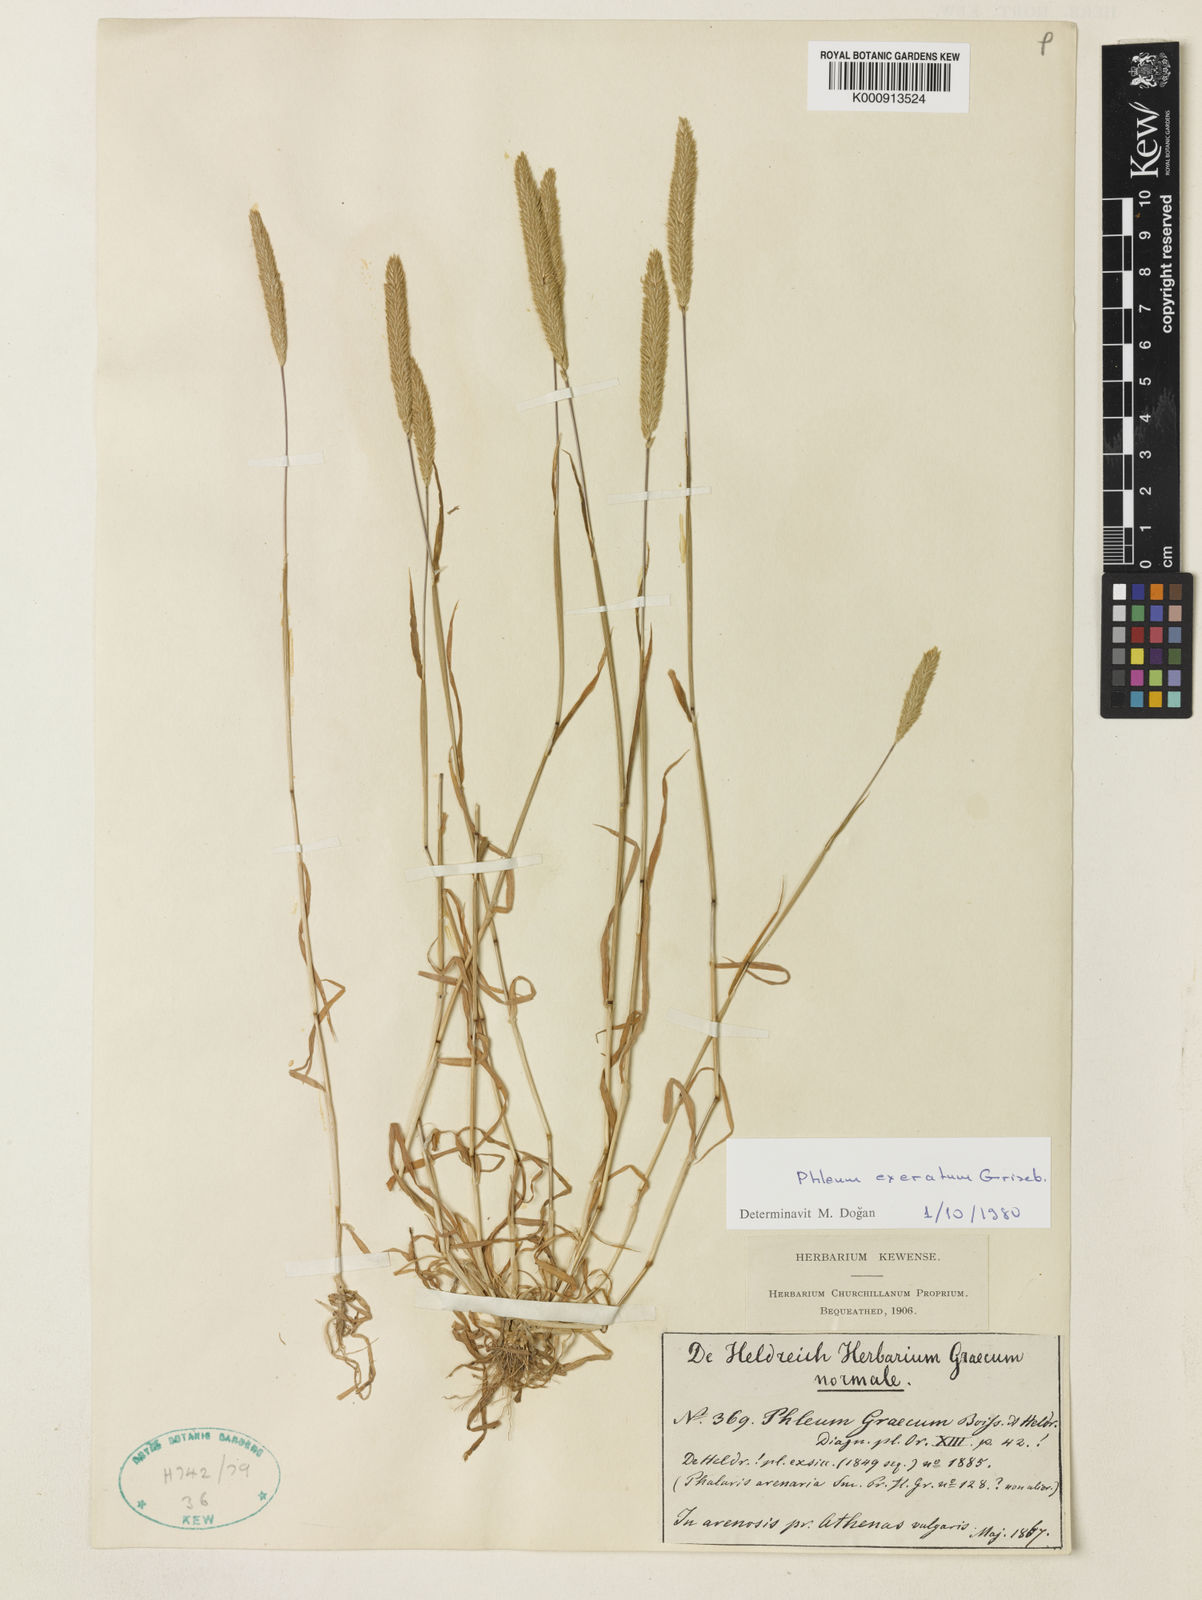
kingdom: Plantae
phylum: Tracheophyta
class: Liliopsida
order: Poales
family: Poaceae
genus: Phleum
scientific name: Phleum exaratum
